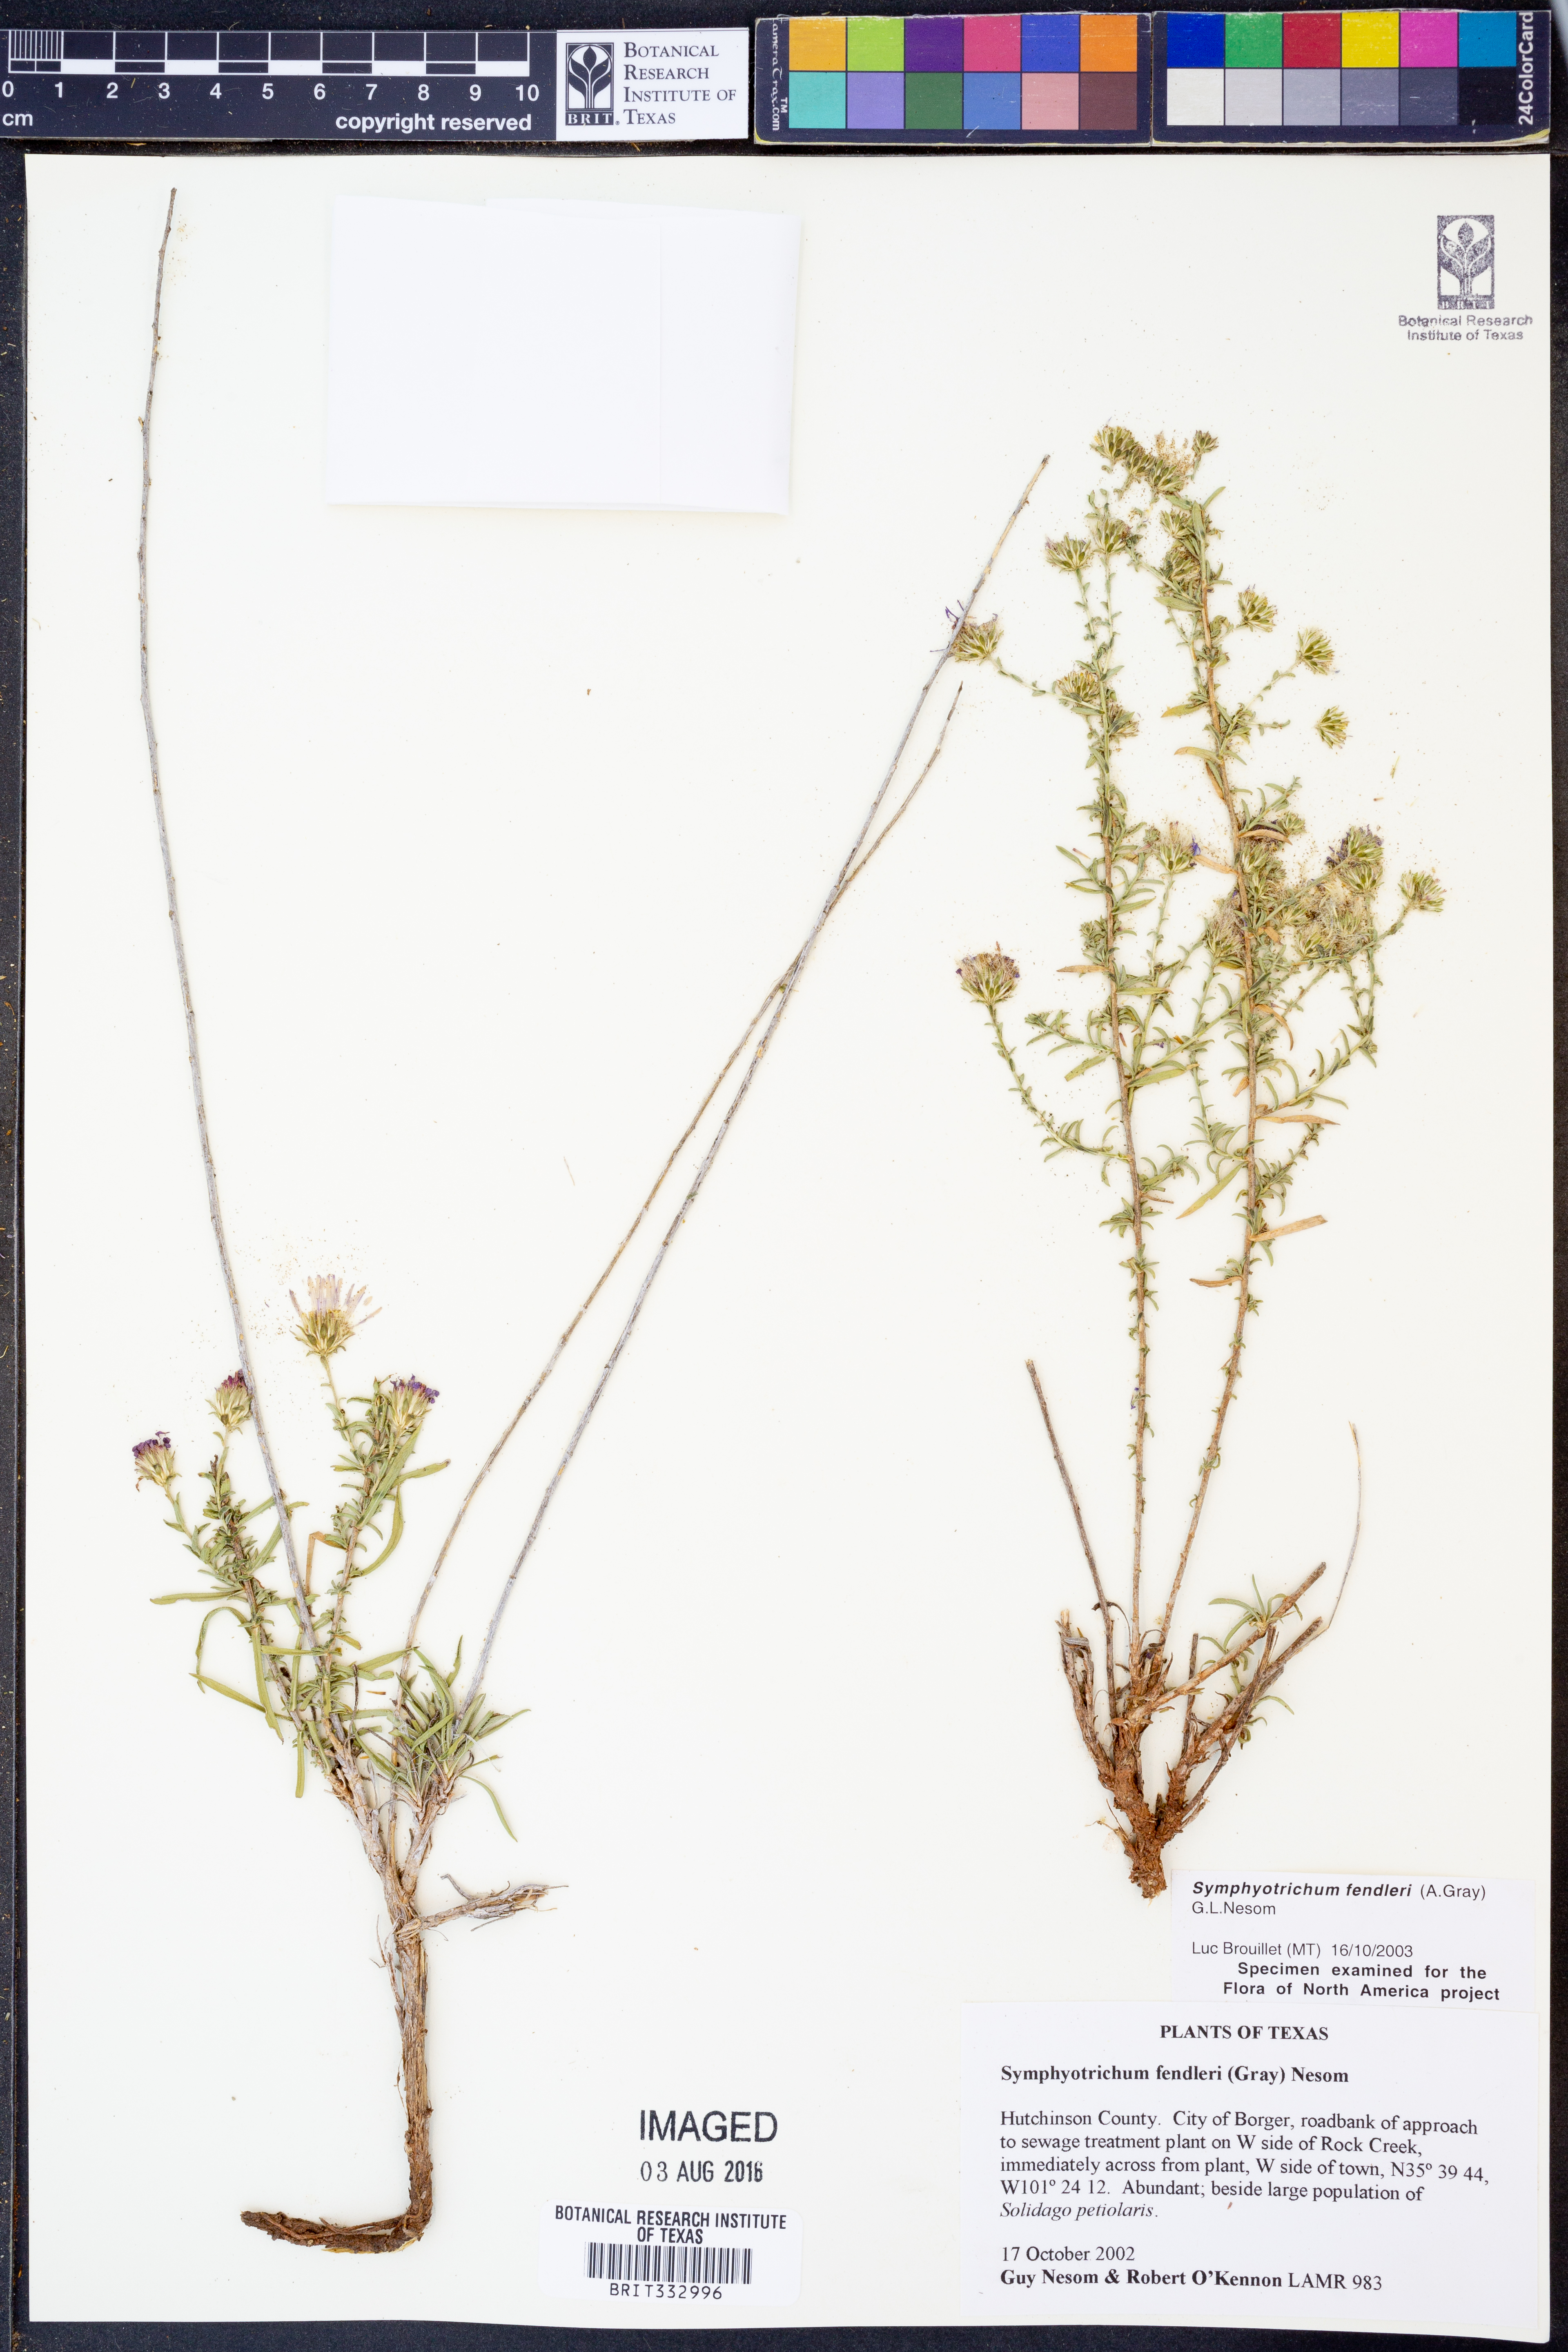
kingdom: Plantae
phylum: Tracheophyta
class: Magnoliopsida
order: Asterales
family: Asteraceae
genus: Symphyotrichum
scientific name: Symphyotrichum fendleri
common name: Fendler's aster
